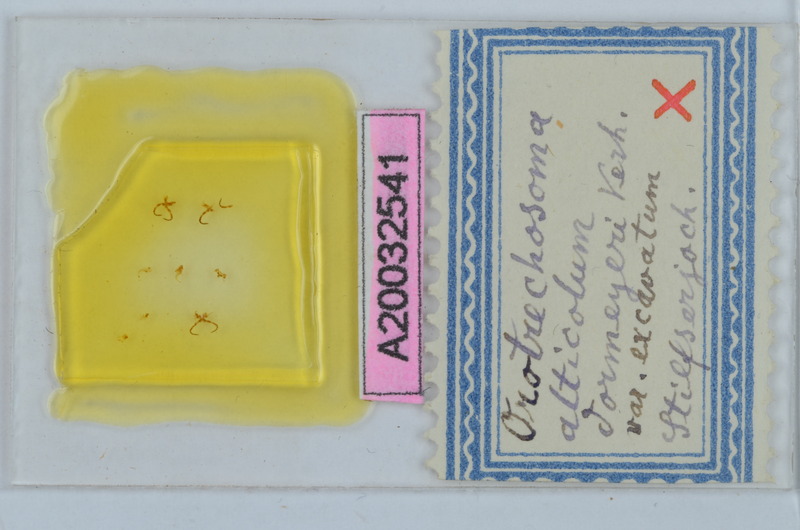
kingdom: Animalia
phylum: Arthropoda
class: Diplopoda
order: Chordeumatida
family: Craspedosomatidae
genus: Pterygophorosoma
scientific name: Pterygophorosoma alticolum
